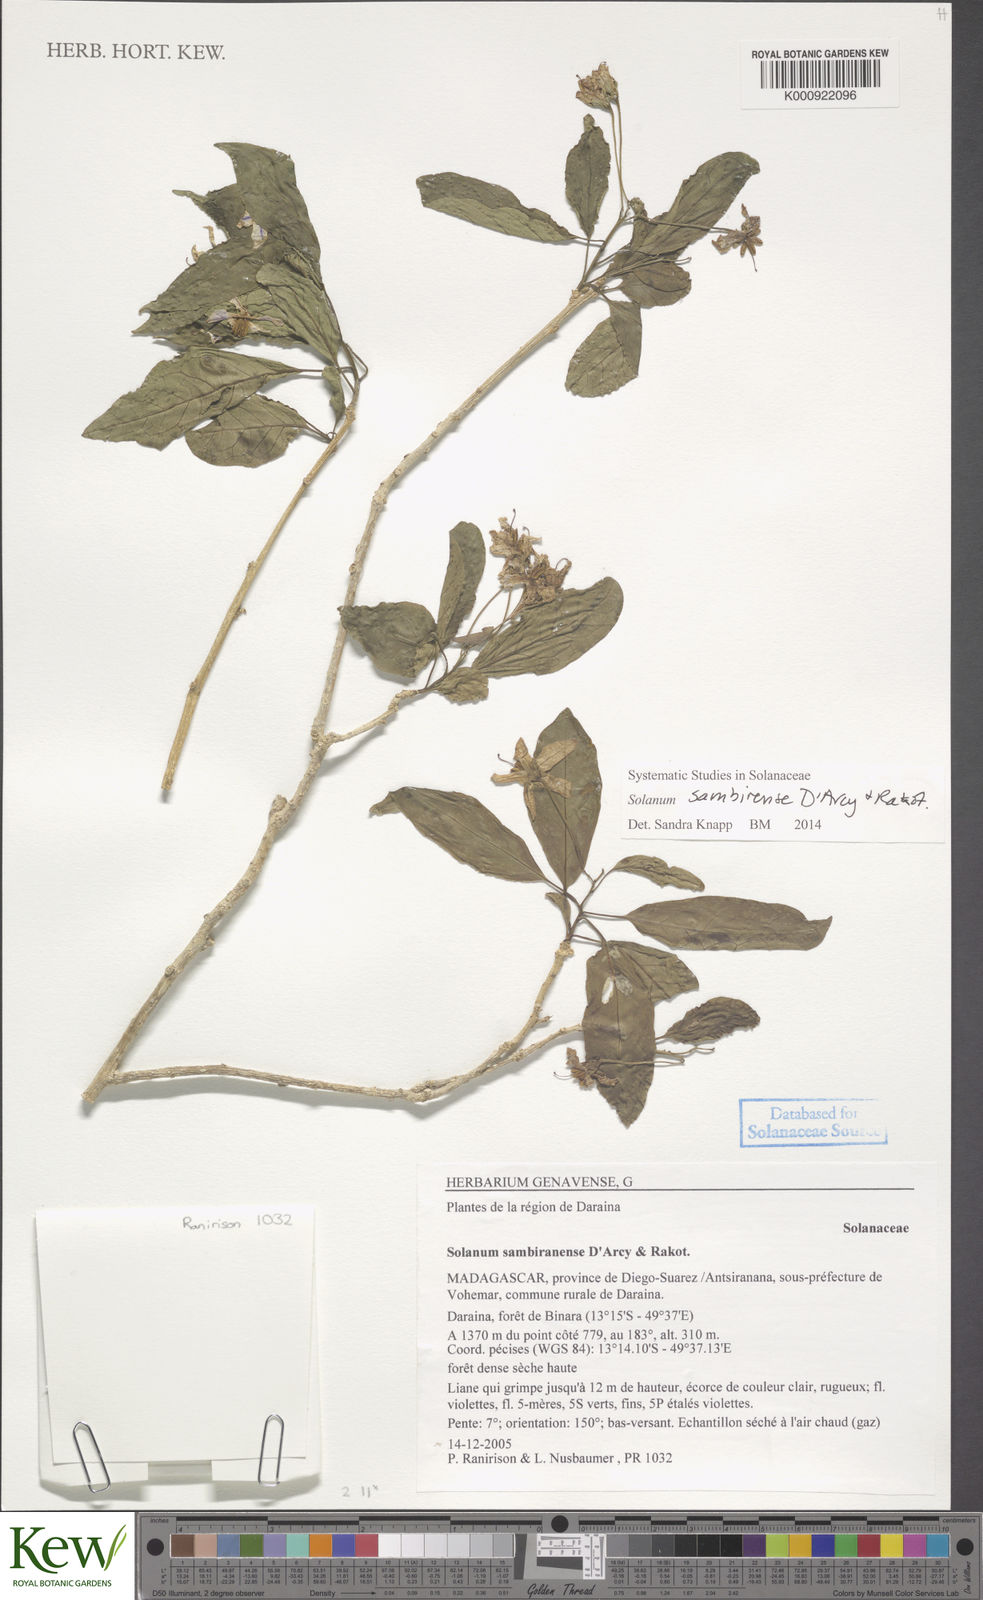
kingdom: Plantae
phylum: Tracheophyta
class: Magnoliopsida
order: Solanales
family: Solanaceae
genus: Solanum
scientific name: Solanum sambiranense
